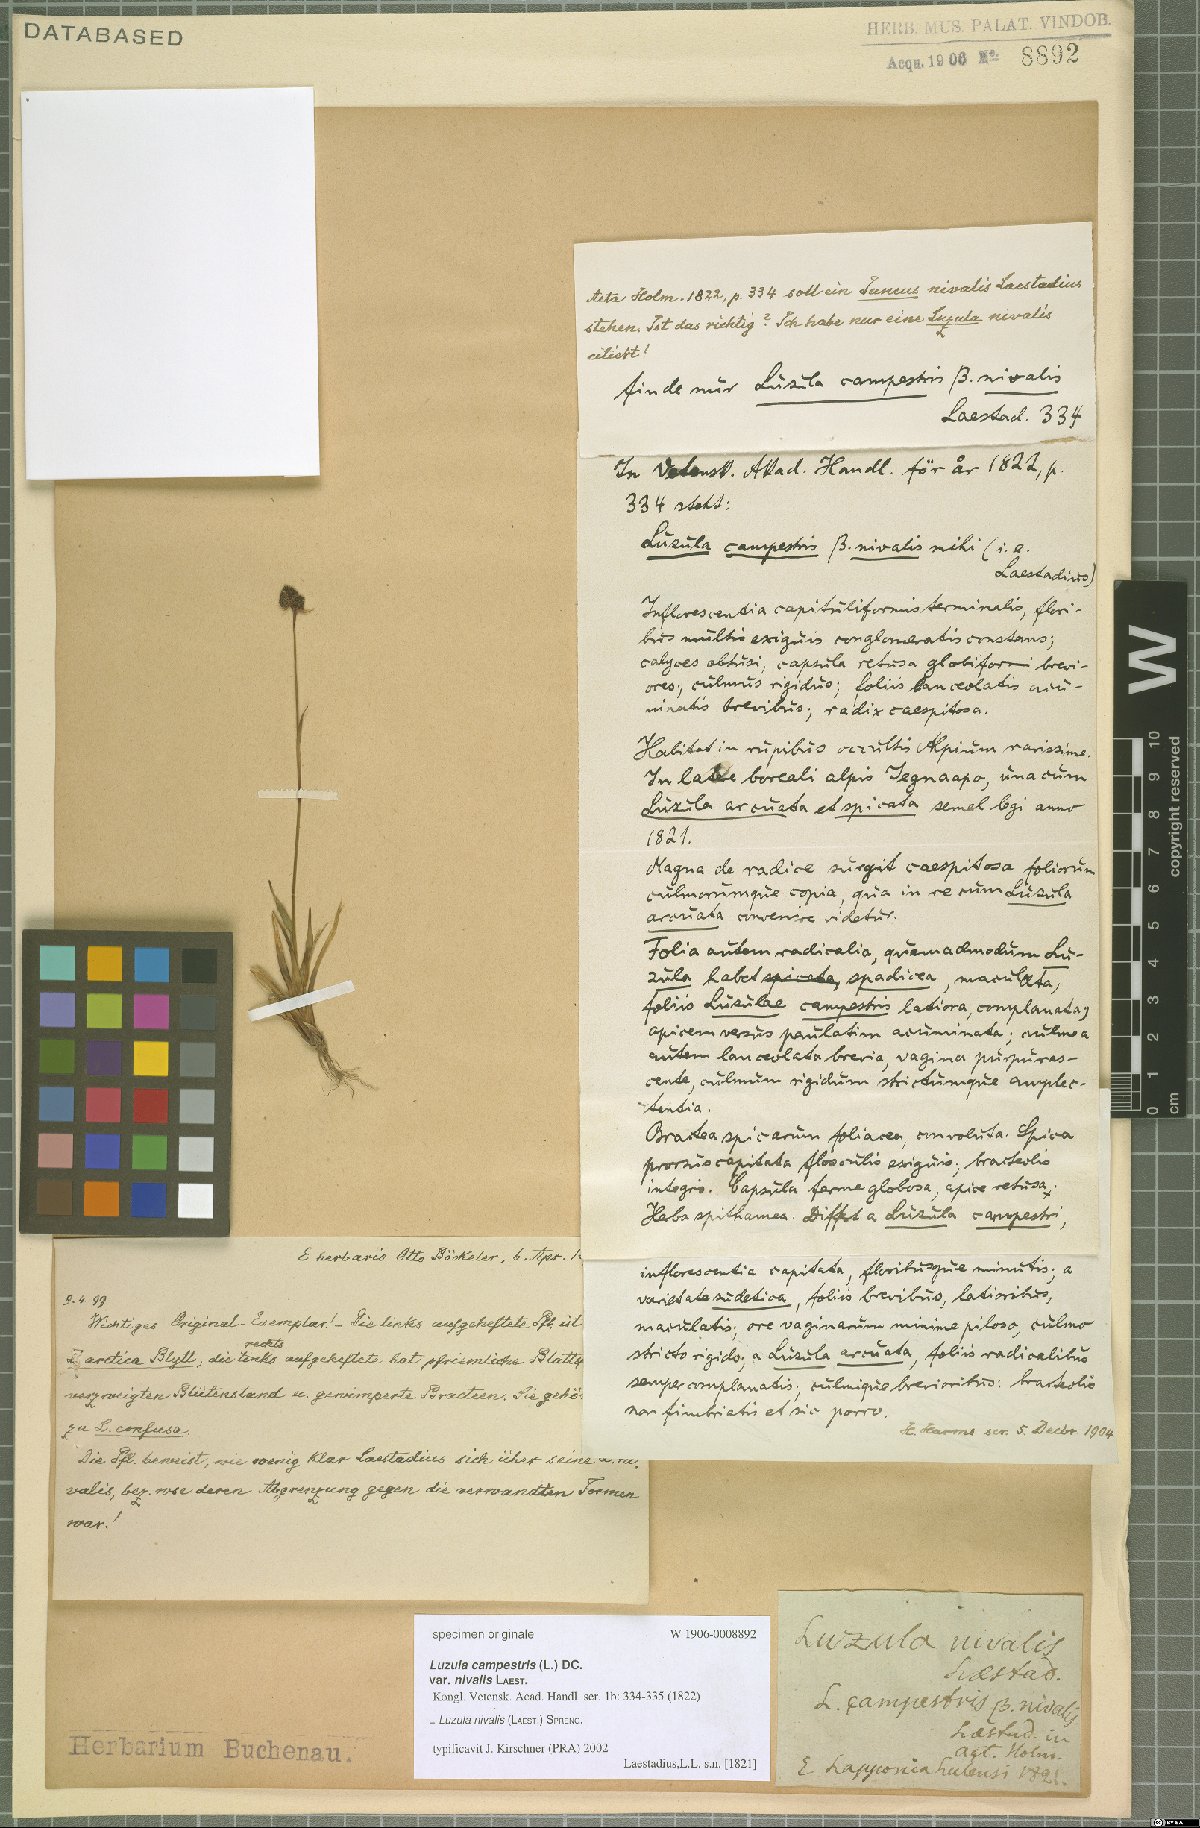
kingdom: Plantae
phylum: Tracheophyta
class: Liliopsida
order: Poales
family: Juncaceae
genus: Luzula
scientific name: Luzula nivalis
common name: Arctic woodrush
